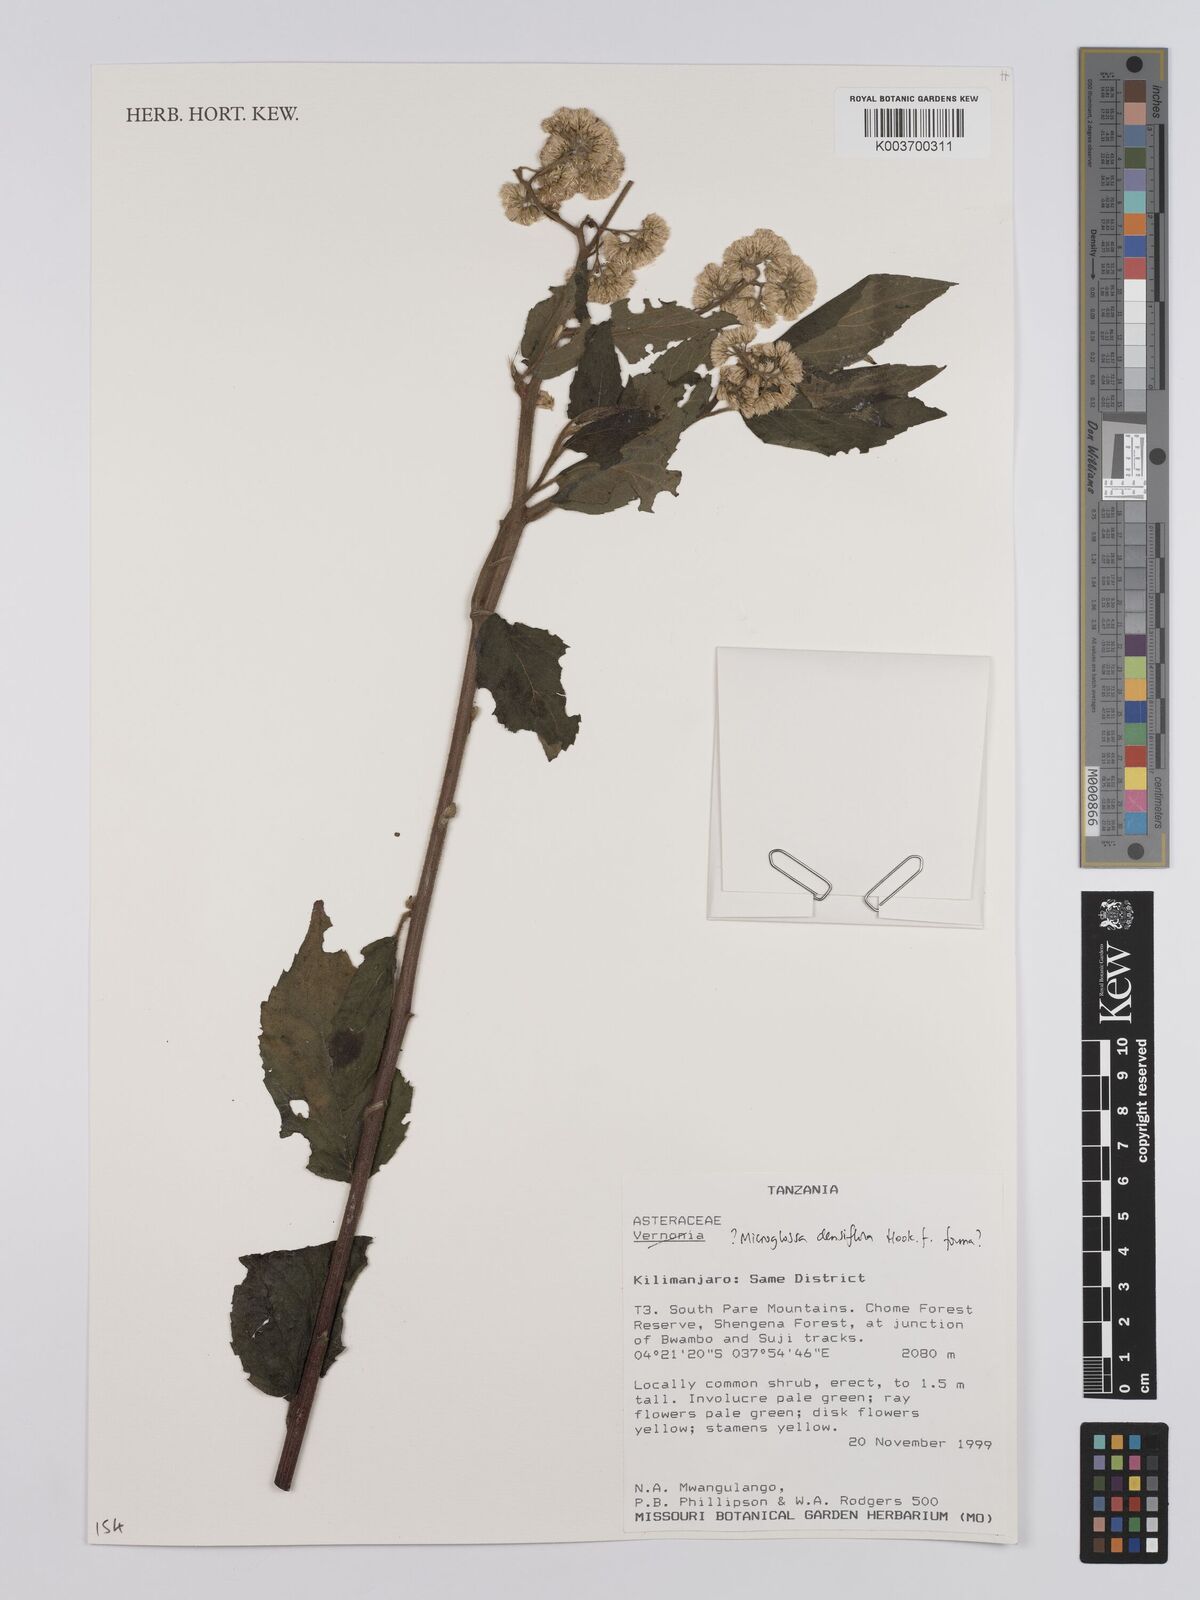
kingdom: Plantae
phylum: Tracheophyta
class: Magnoliopsida
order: Asterales
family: Asteraceae
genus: Microglossa
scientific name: Microglossa densiflora
